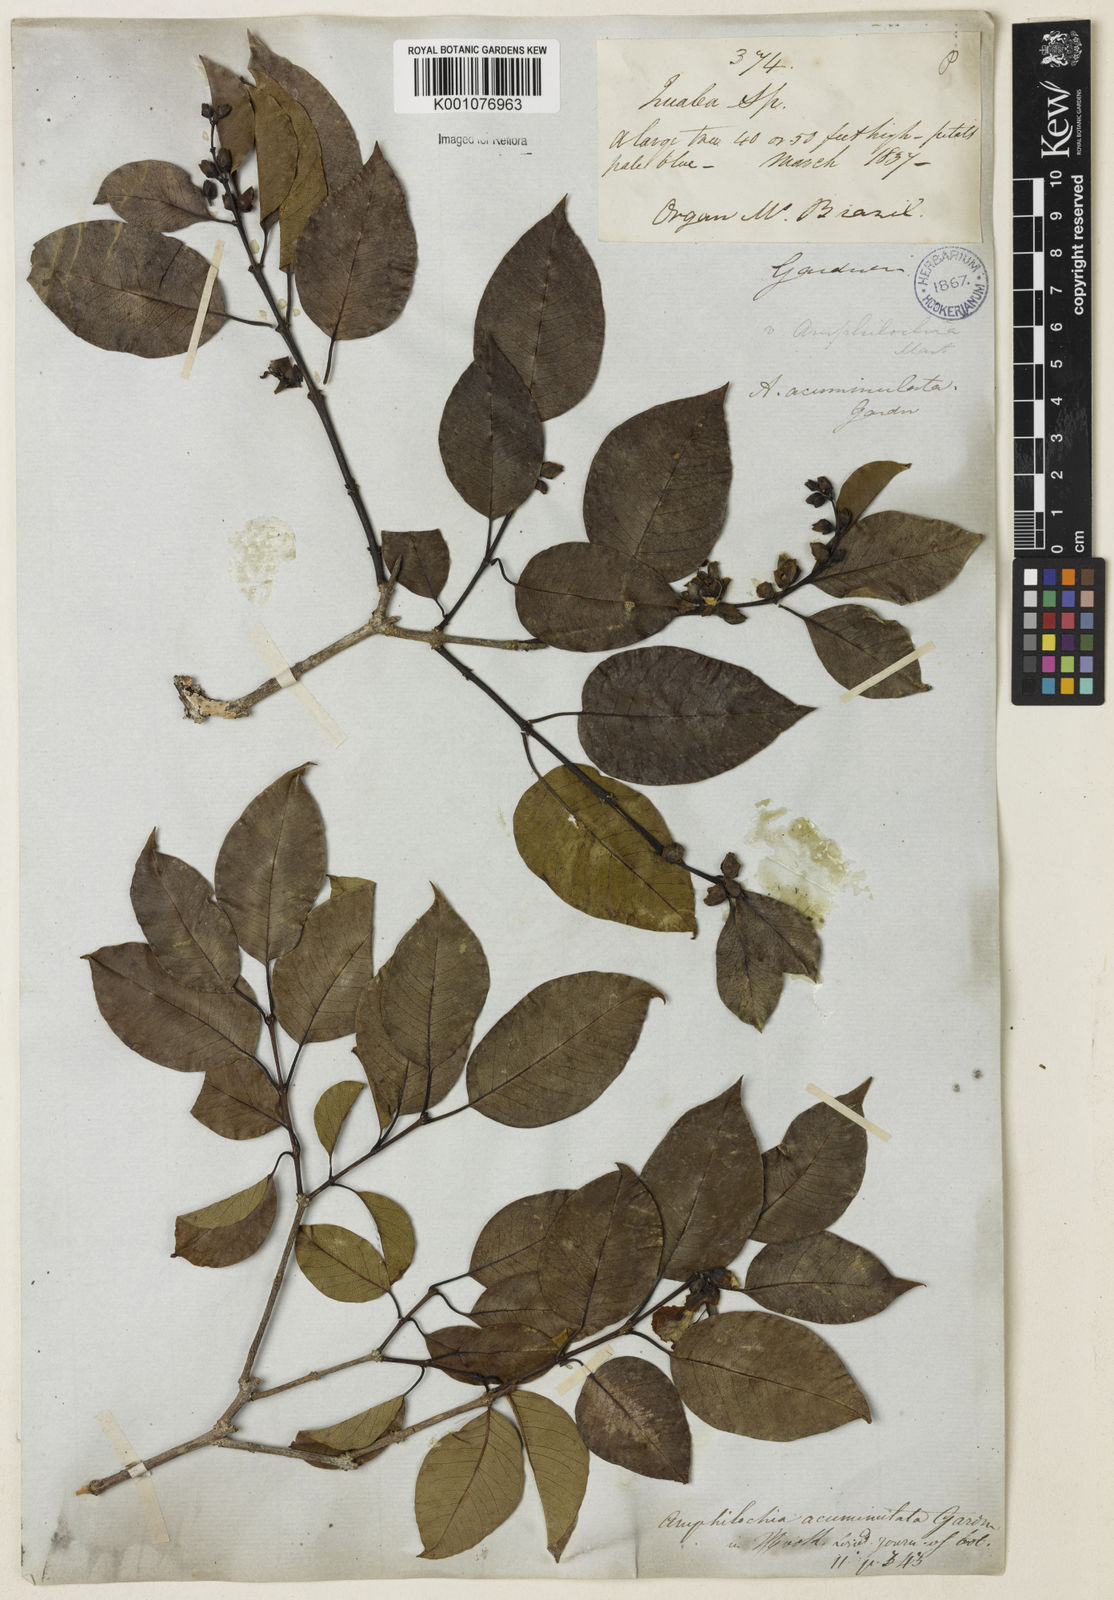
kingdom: Plantae
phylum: Tracheophyta
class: Magnoliopsida
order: Myrtales
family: Vochysiaceae
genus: Qualea
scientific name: Qualea cryptantha
